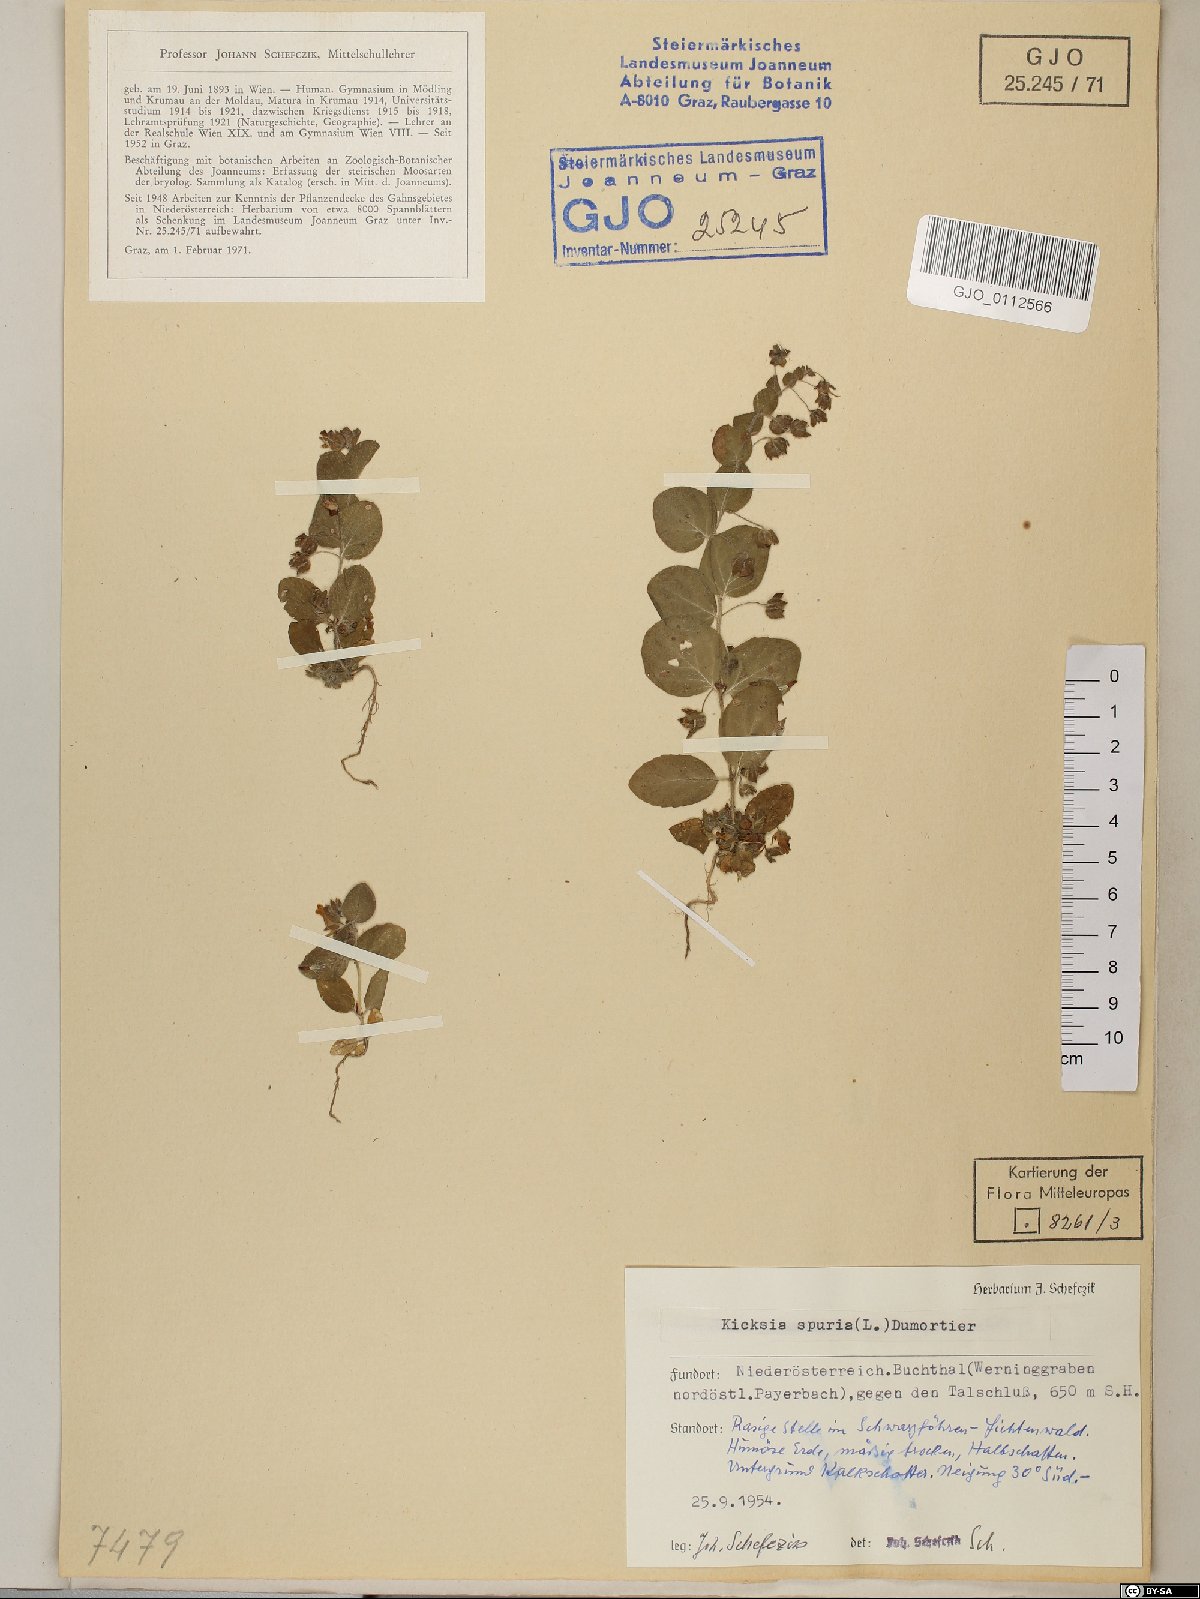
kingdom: Plantae
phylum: Tracheophyta
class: Magnoliopsida
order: Lamiales
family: Plantaginaceae
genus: Kickxia
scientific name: Kickxia spuria
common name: Round-leaved fluellen
